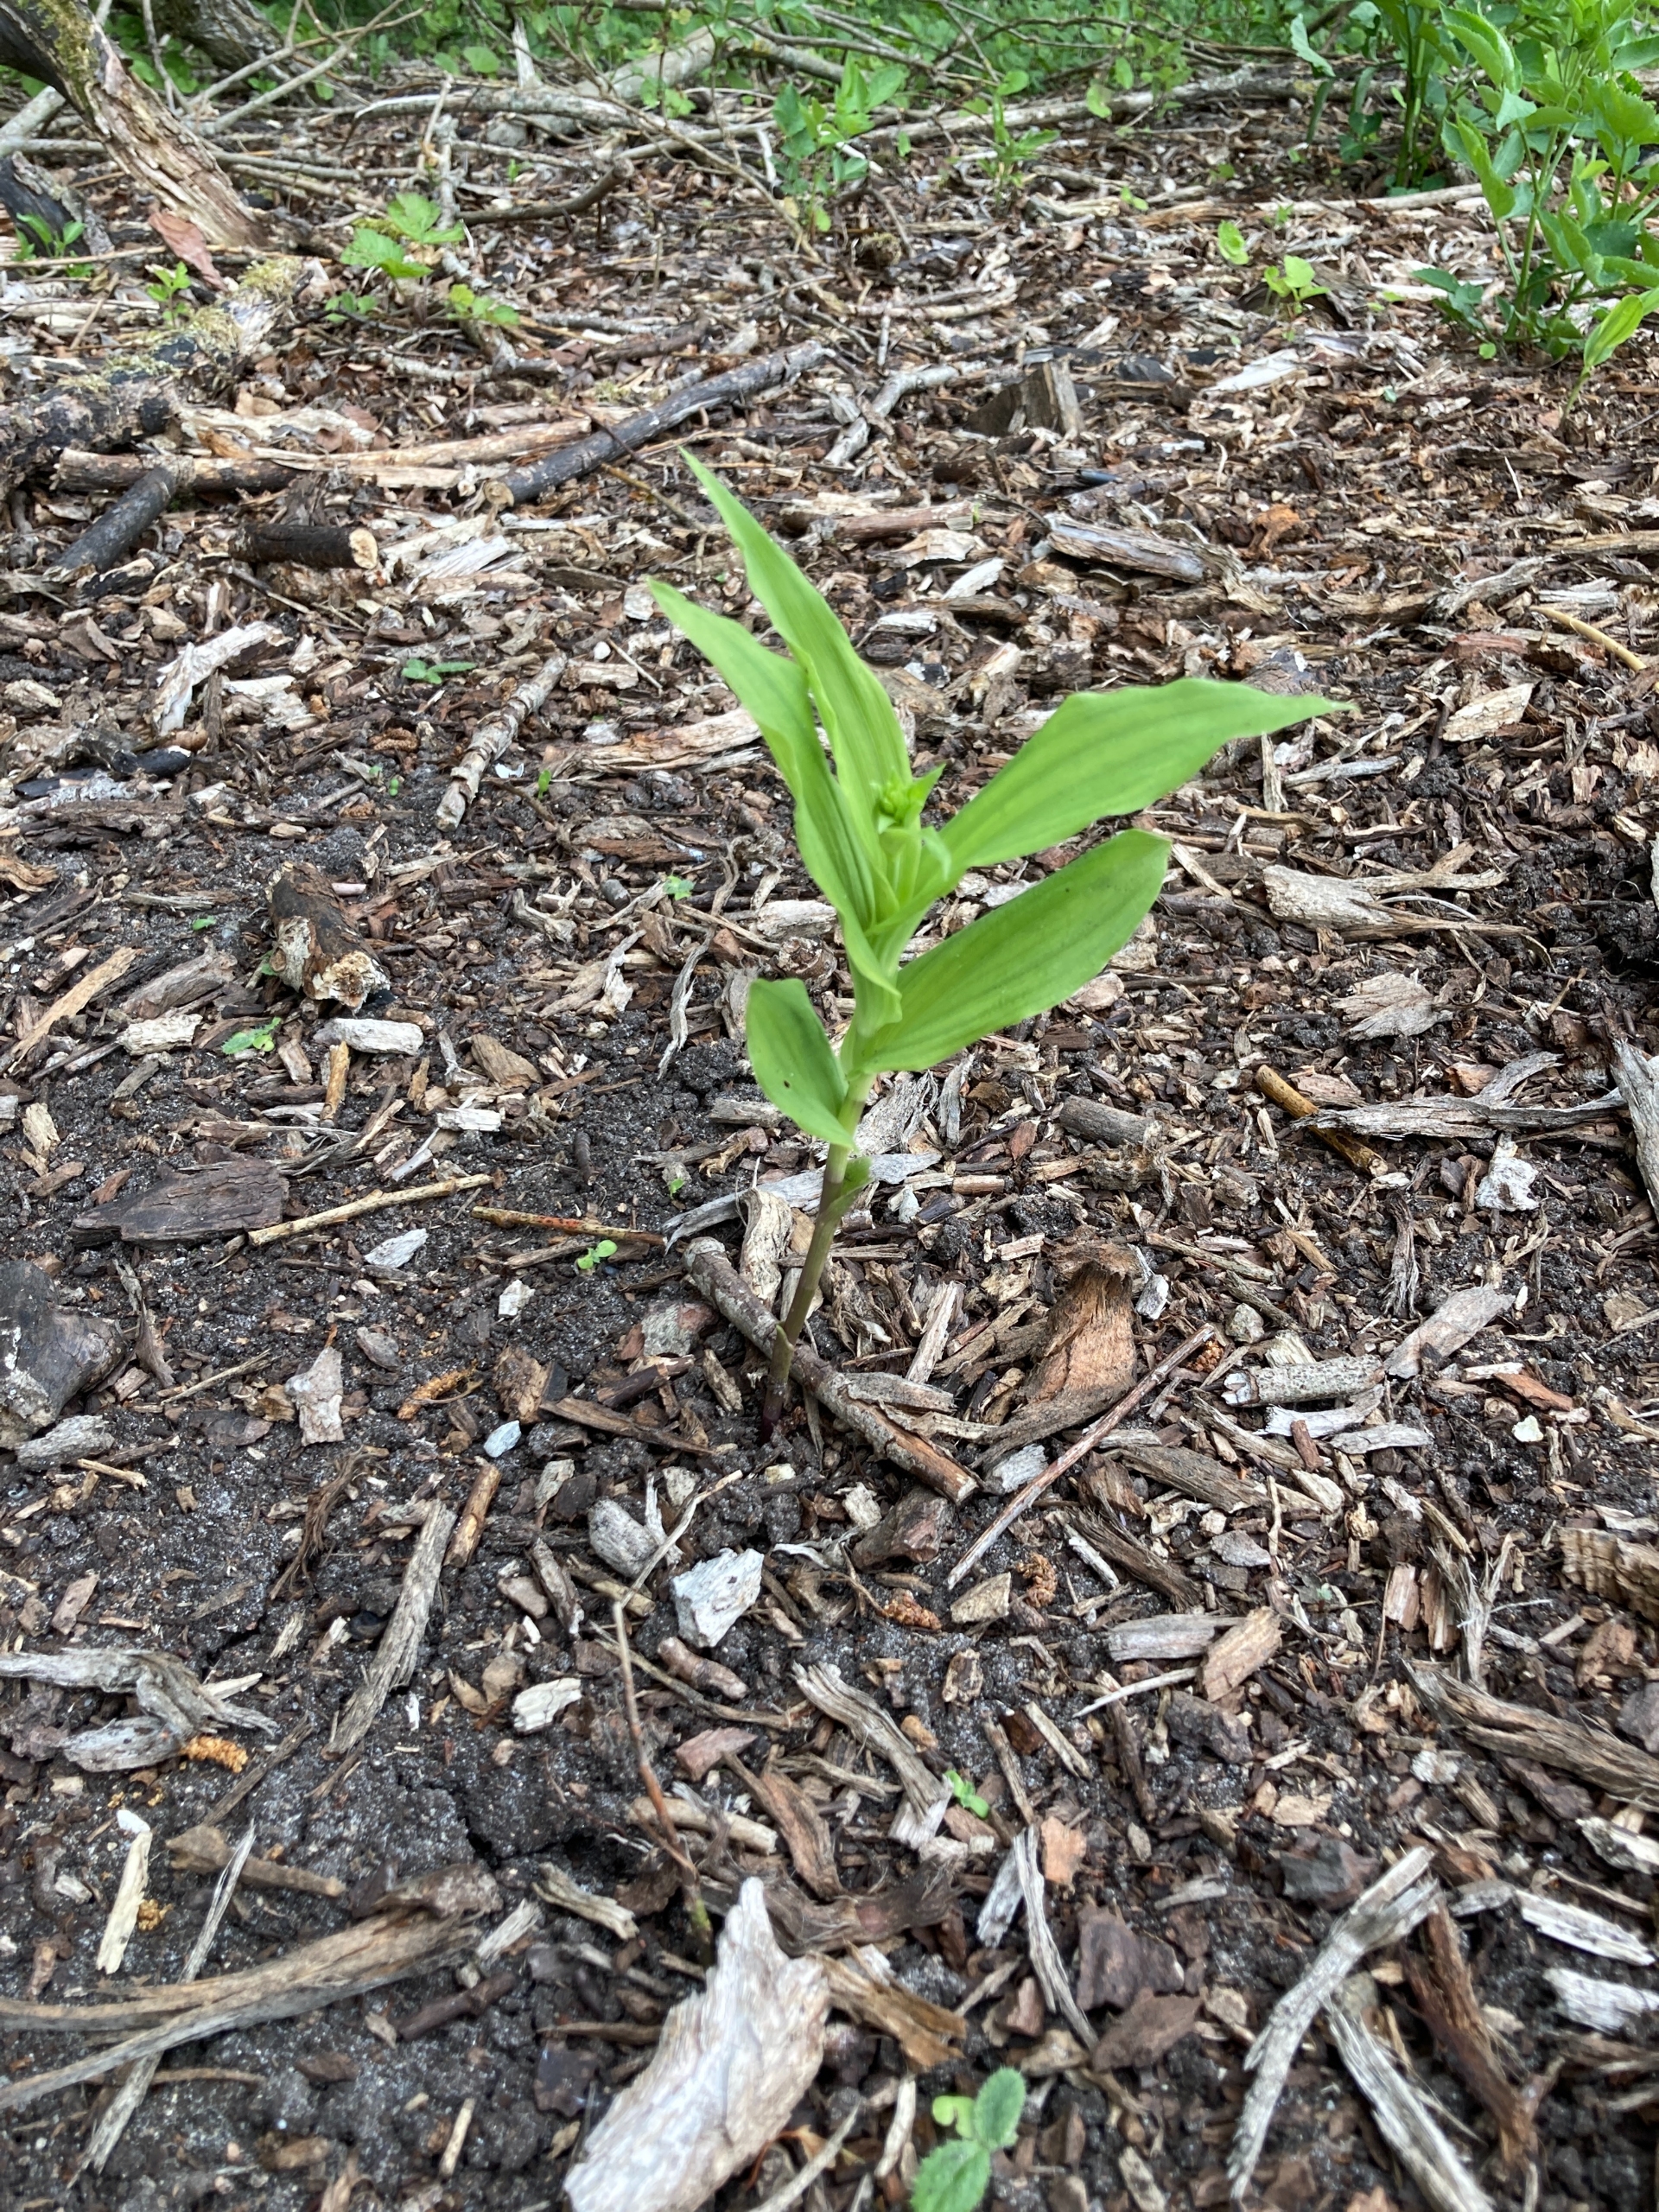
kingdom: Plantae
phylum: Tracheophyta
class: Liliopsida
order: Asparagales
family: Orchidaceae
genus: Epipactis
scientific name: Epipactis helleborine
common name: Skov-hullæbe
